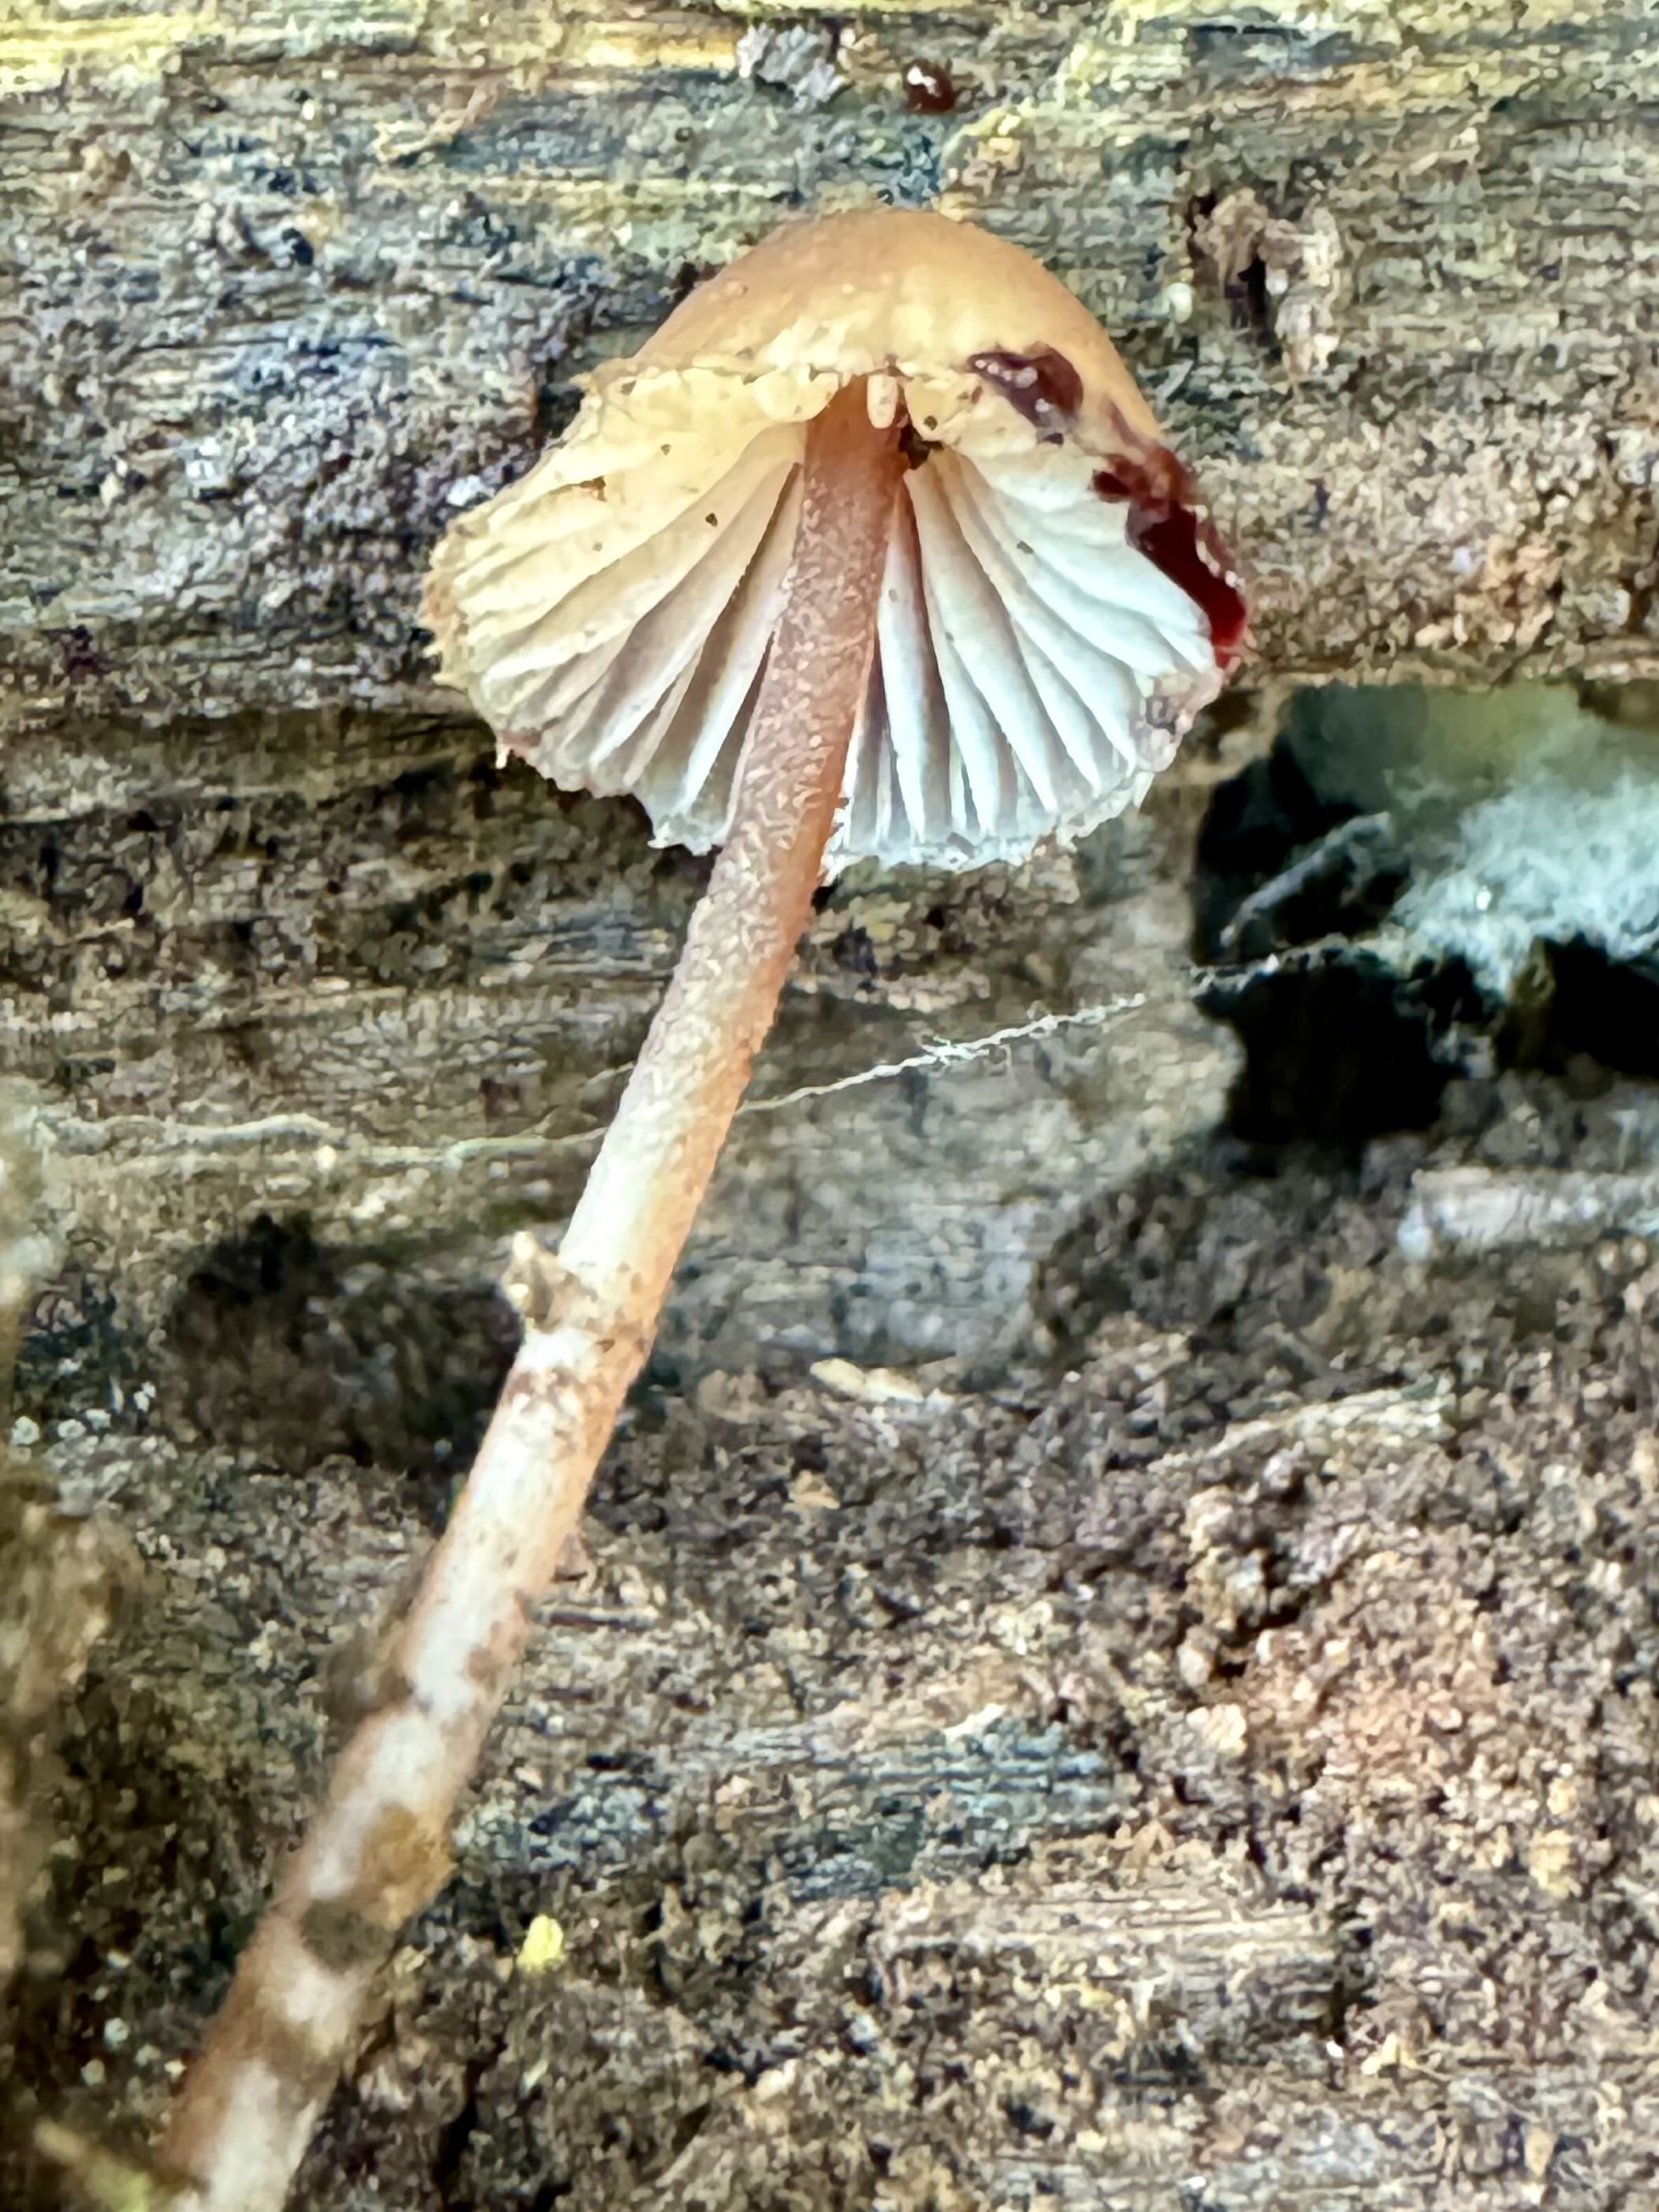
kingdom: Fungi
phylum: Basidiomycota
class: Agaricomycetes
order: Agaricales
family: Mycenaceae
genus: Mycena
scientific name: Mycena haematopus
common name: blødende huesvamp
